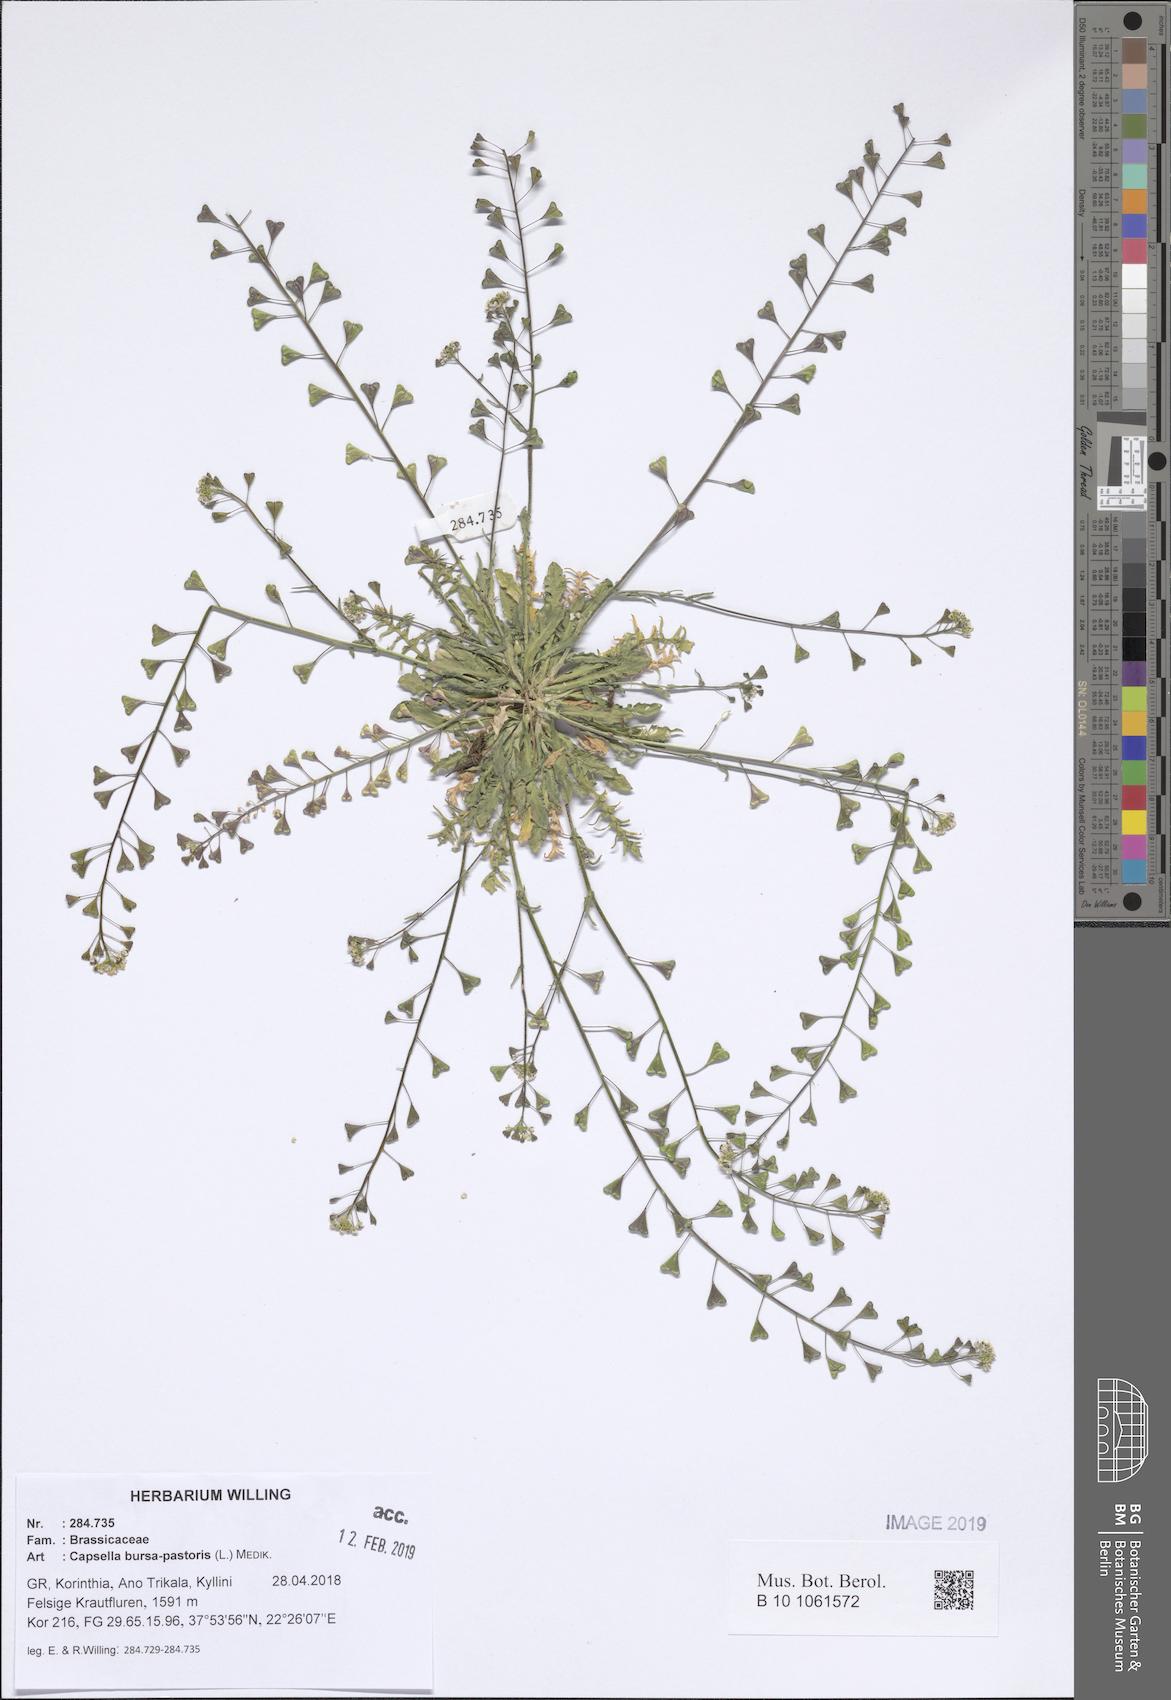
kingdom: Plantae
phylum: Tracheophyta
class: Magnoliopsida
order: Brassicales
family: Brassicaceae
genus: Capsella
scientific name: Capsella bursa-pastoris
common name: Shepherd's purse
